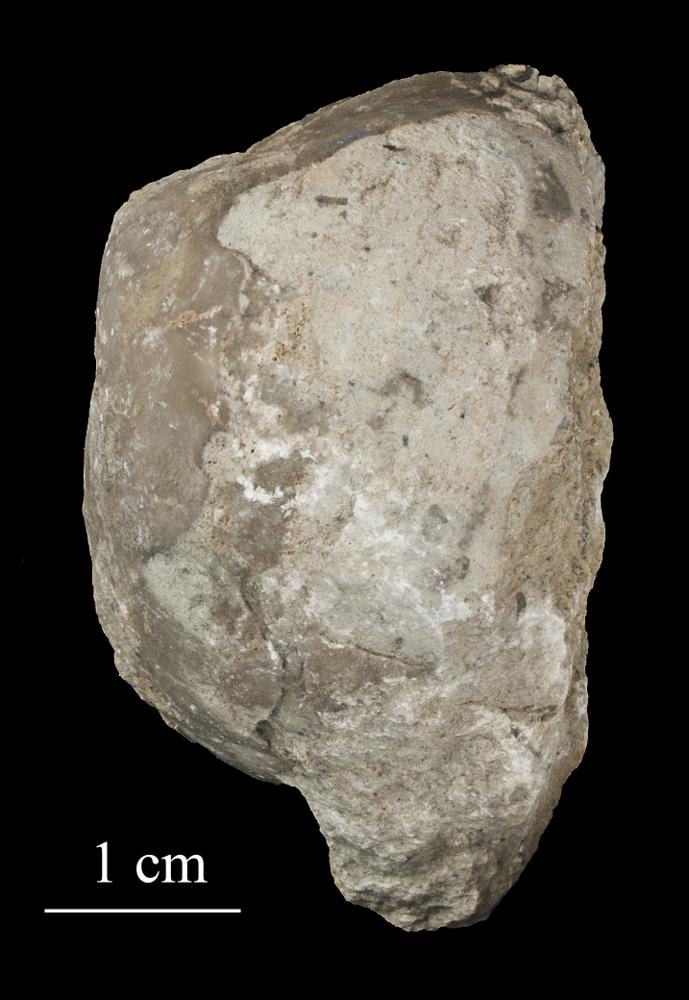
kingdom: Animalia
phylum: Brachiopoda
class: Rhynchonellata
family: Porambonitidae
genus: Porambonites
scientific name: Porambonites
